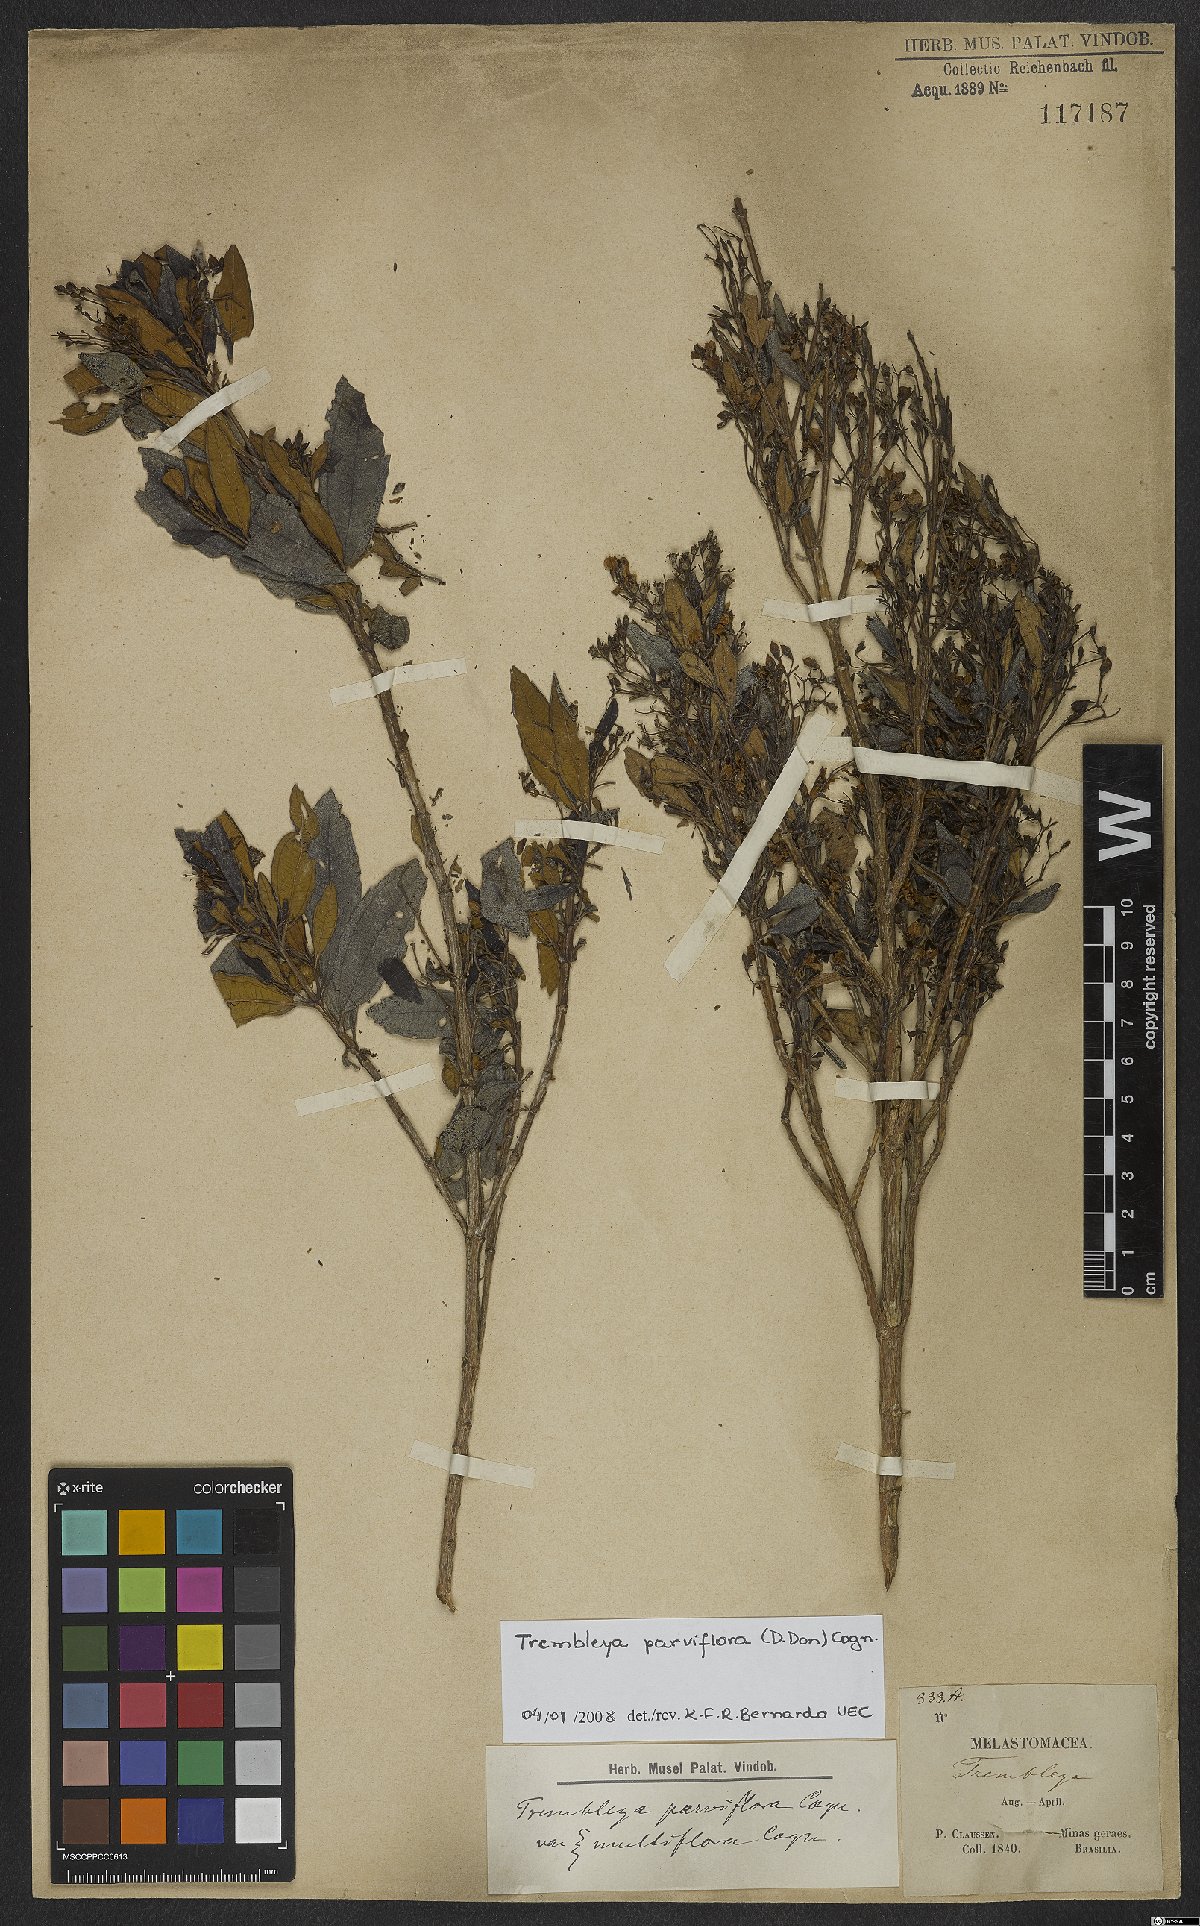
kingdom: Plantae
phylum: Tracheophyta
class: Magnoliopsida
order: Myrtales
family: Melastomataceae
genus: Microlicia
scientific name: Microlicia parviflora
